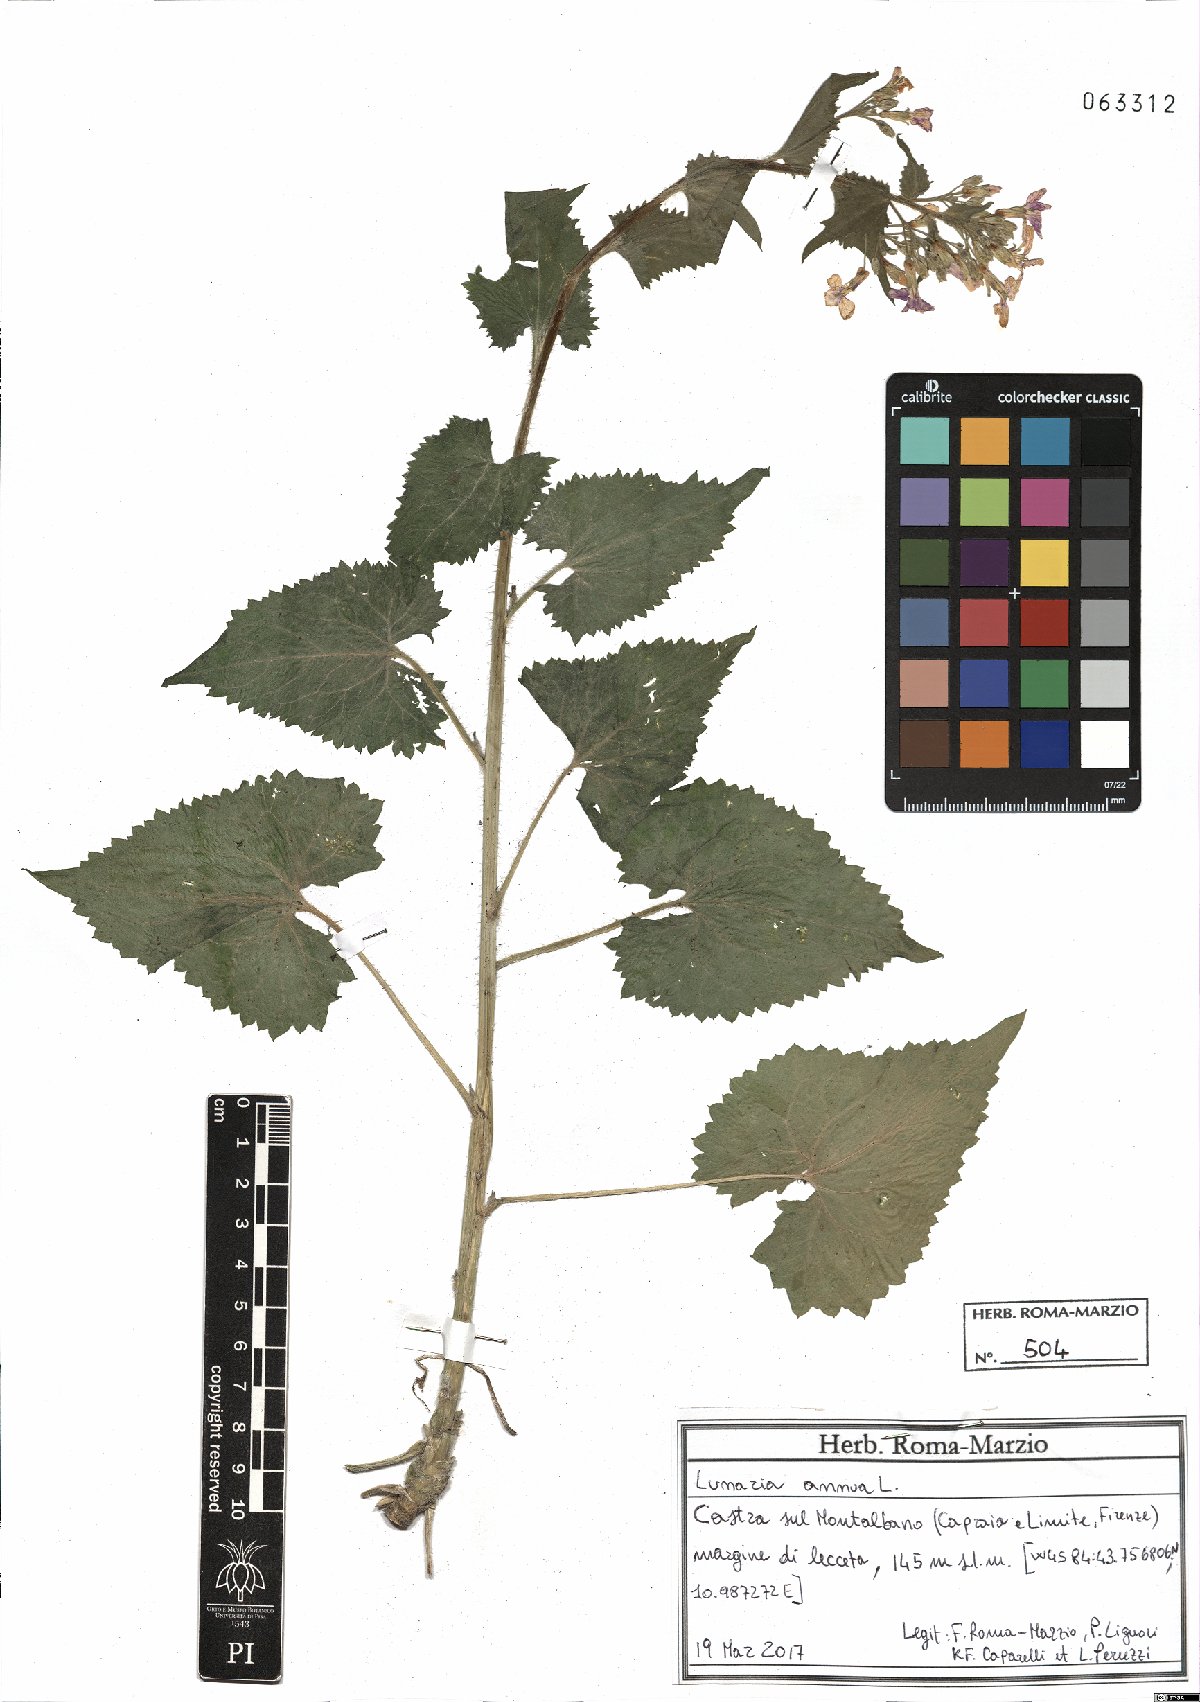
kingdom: Plantae
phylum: Tracheophyta
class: Magnoliopsida
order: Brassicales
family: Brassicaceae
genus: Lunaria
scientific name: Lunaria annua
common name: Honesty
